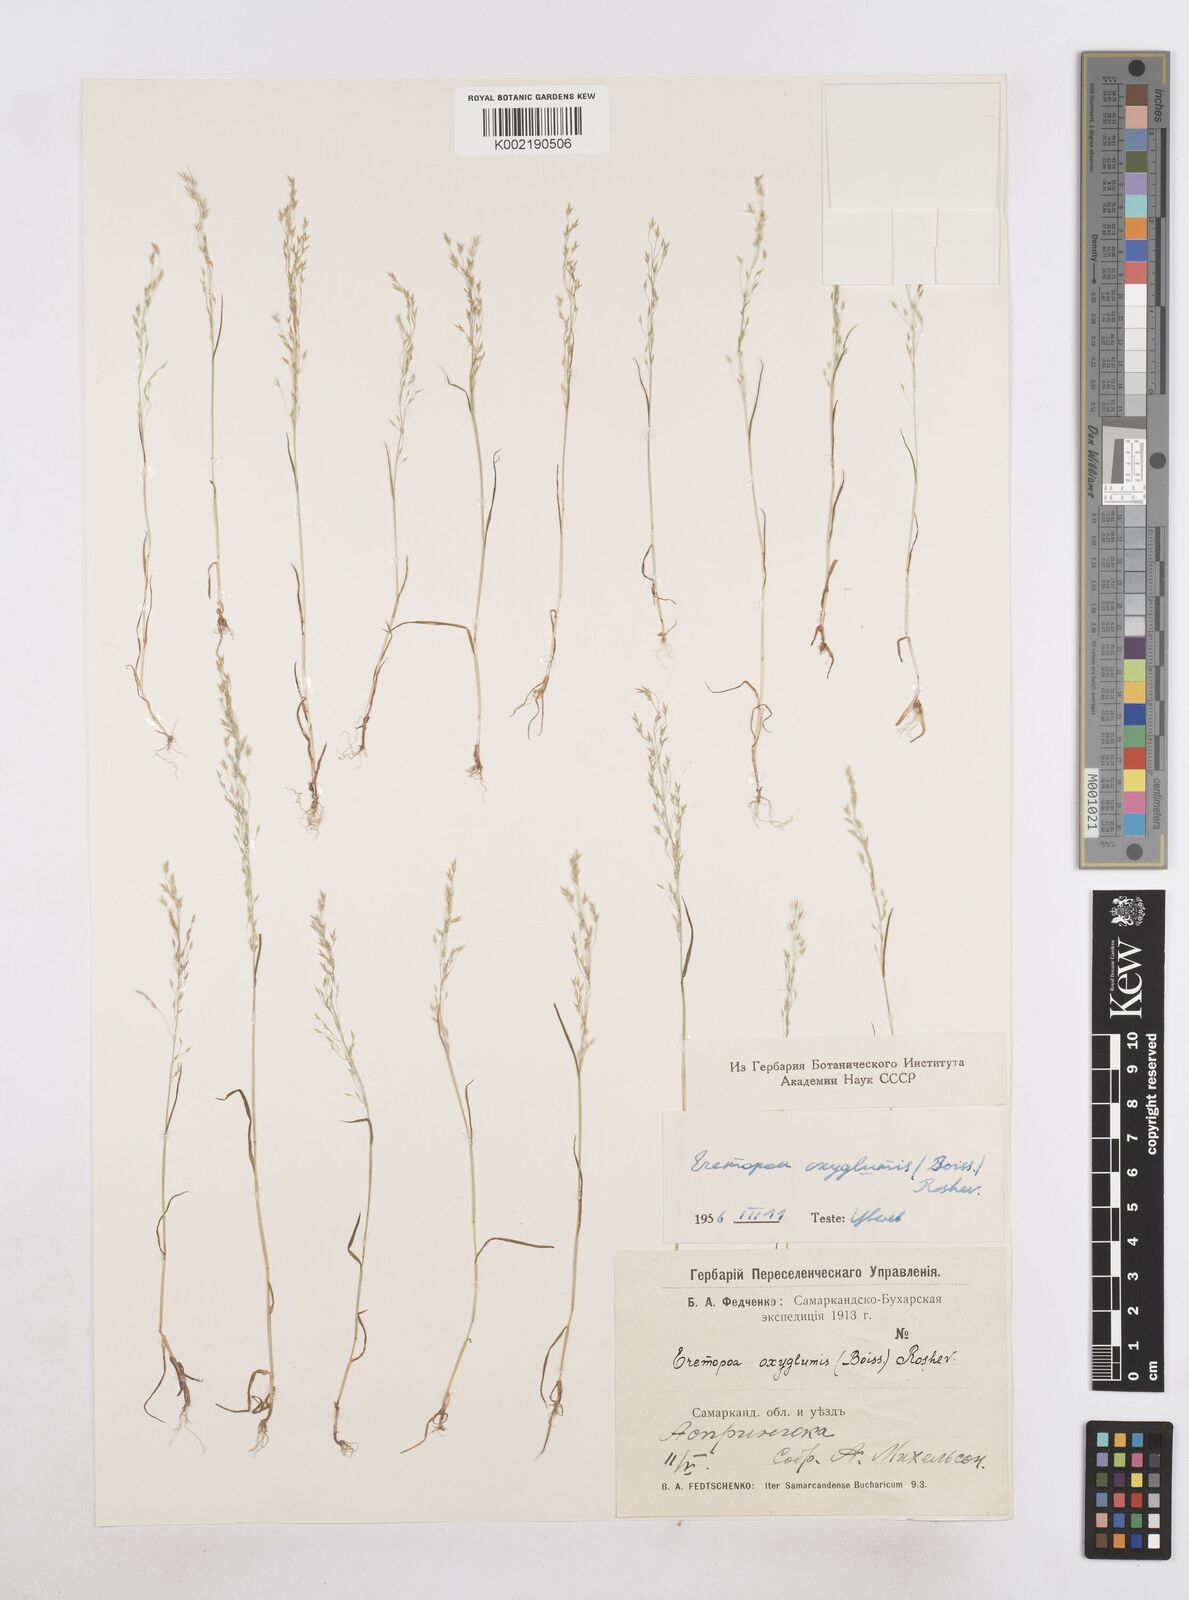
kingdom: Plantae
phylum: Tracheophyta
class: Liliopsida
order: Poales
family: Poaceae
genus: Poa
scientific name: Poa diaphora
